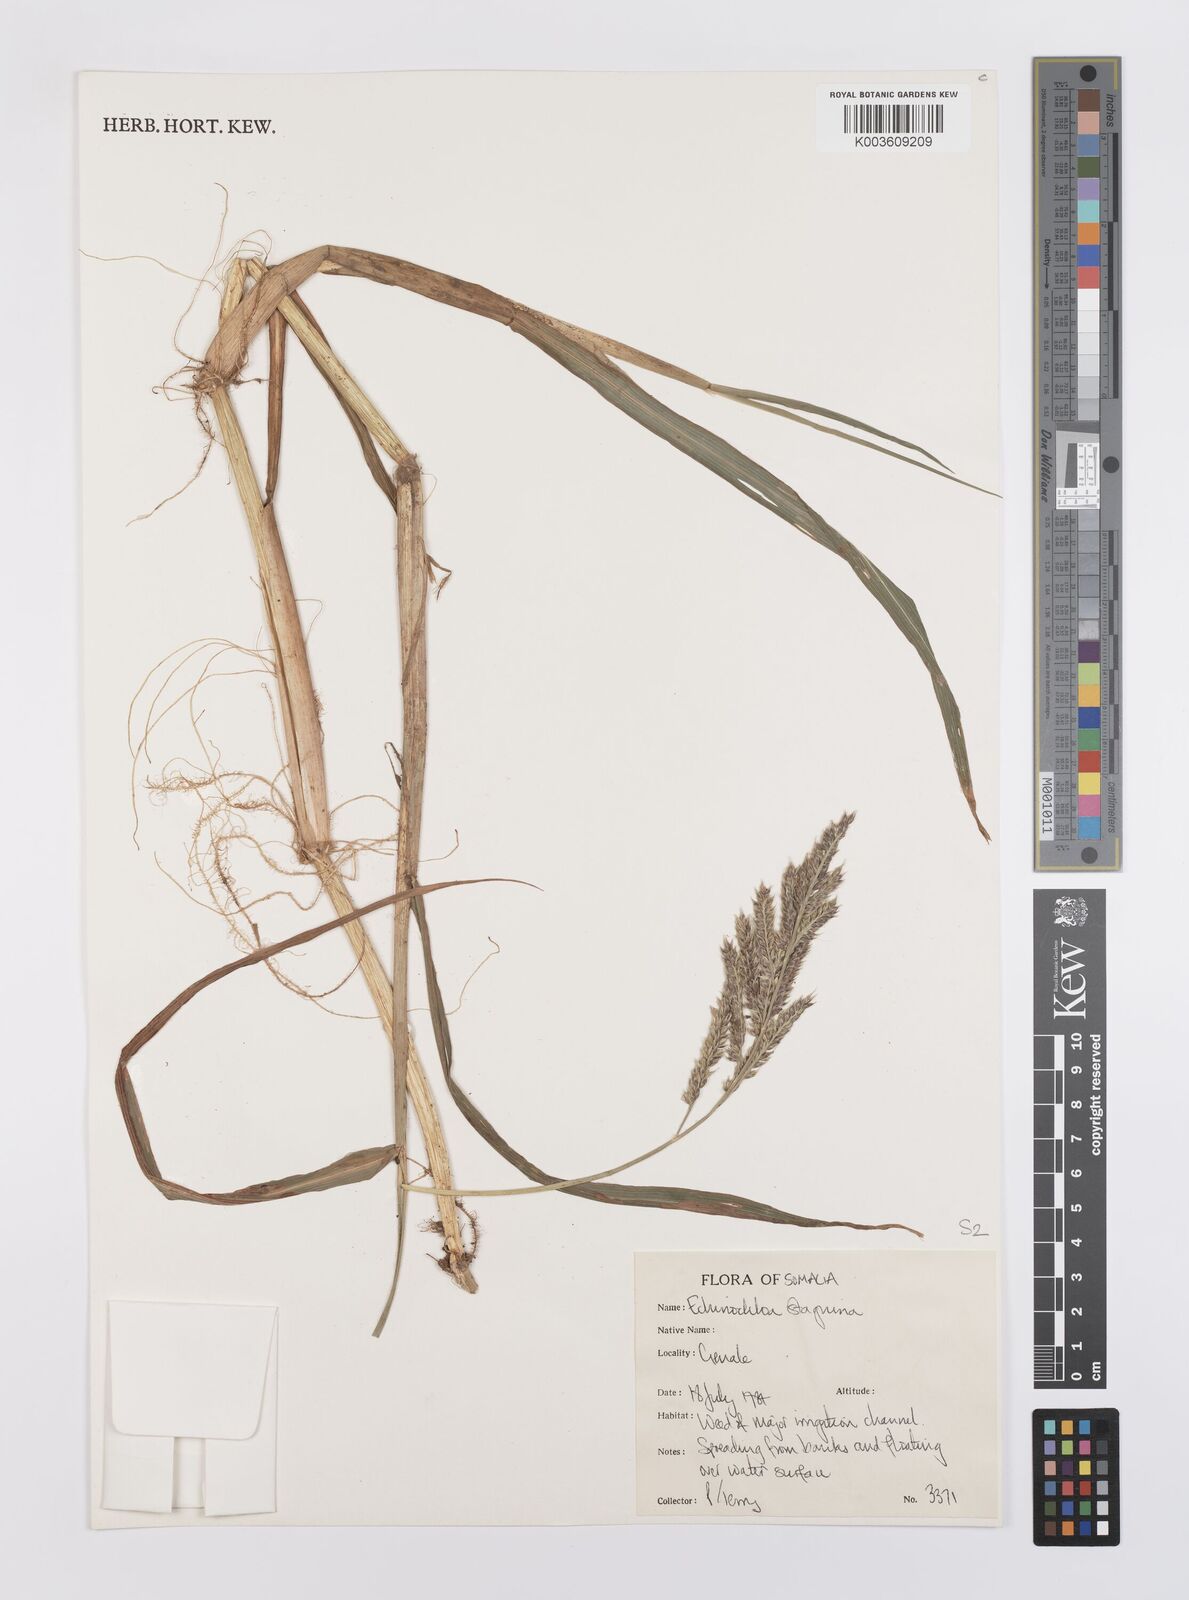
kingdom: Plantae
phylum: Tracheophyta
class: Liliopsida
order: Poales
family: Poaceae
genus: Echinochloa
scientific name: Echinochloa stagnina
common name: Burgu grass
